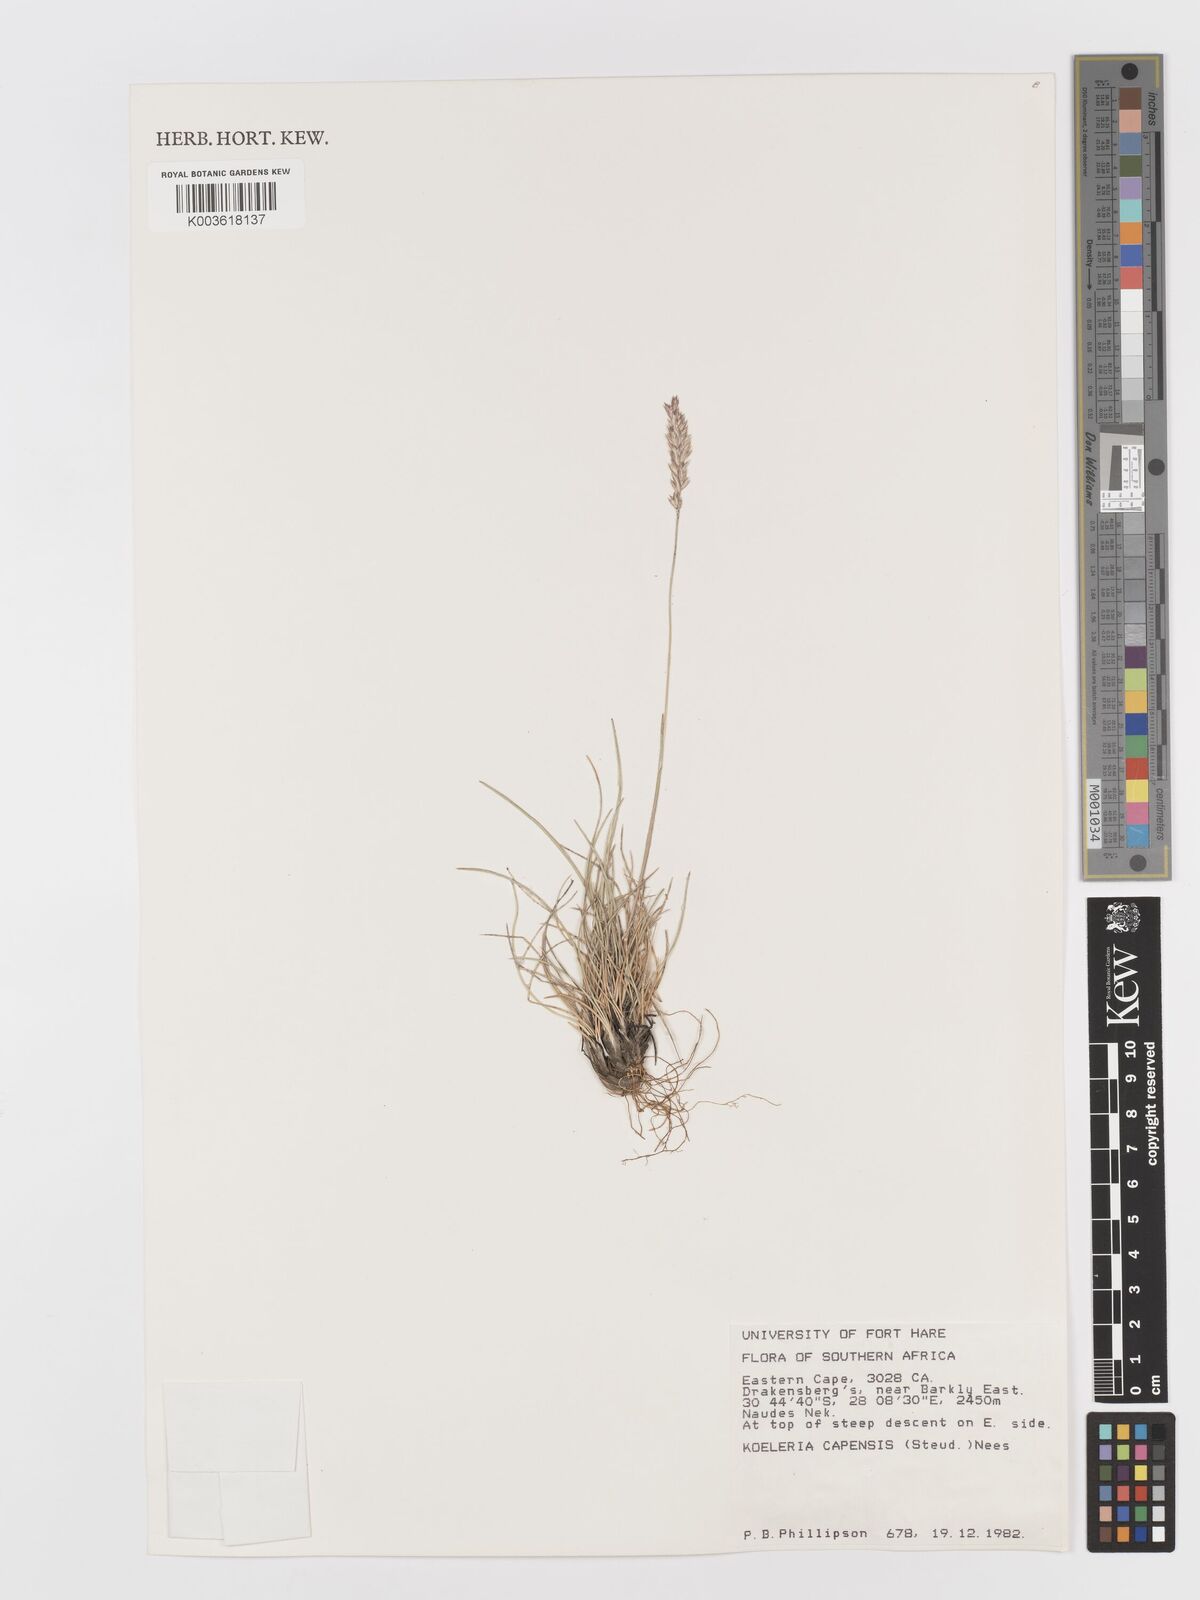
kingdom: Plantae
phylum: Tracheophyta
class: Liliopsida
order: Poales
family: Poaceae
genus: Koeleria
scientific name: Koeleria capensis
